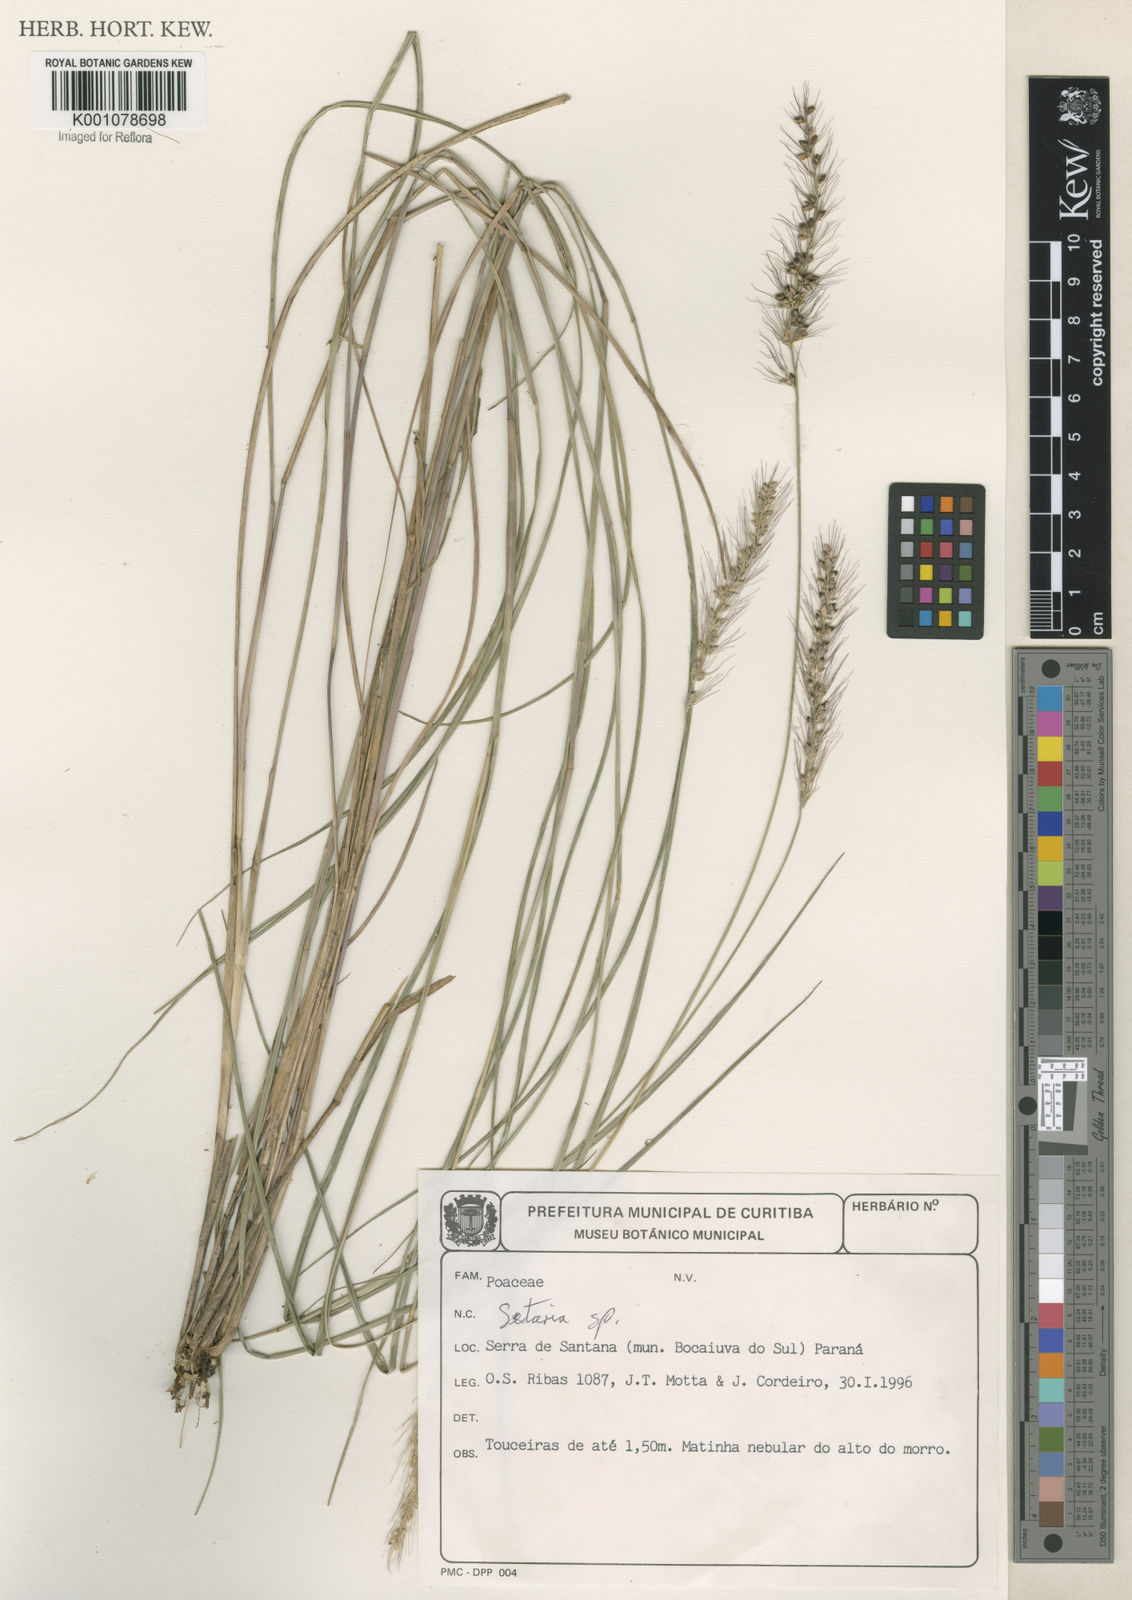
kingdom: Plantae
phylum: Tracheophyta
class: Liliopsida
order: Poales
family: Poaceae
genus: Setaria
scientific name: Setaria
